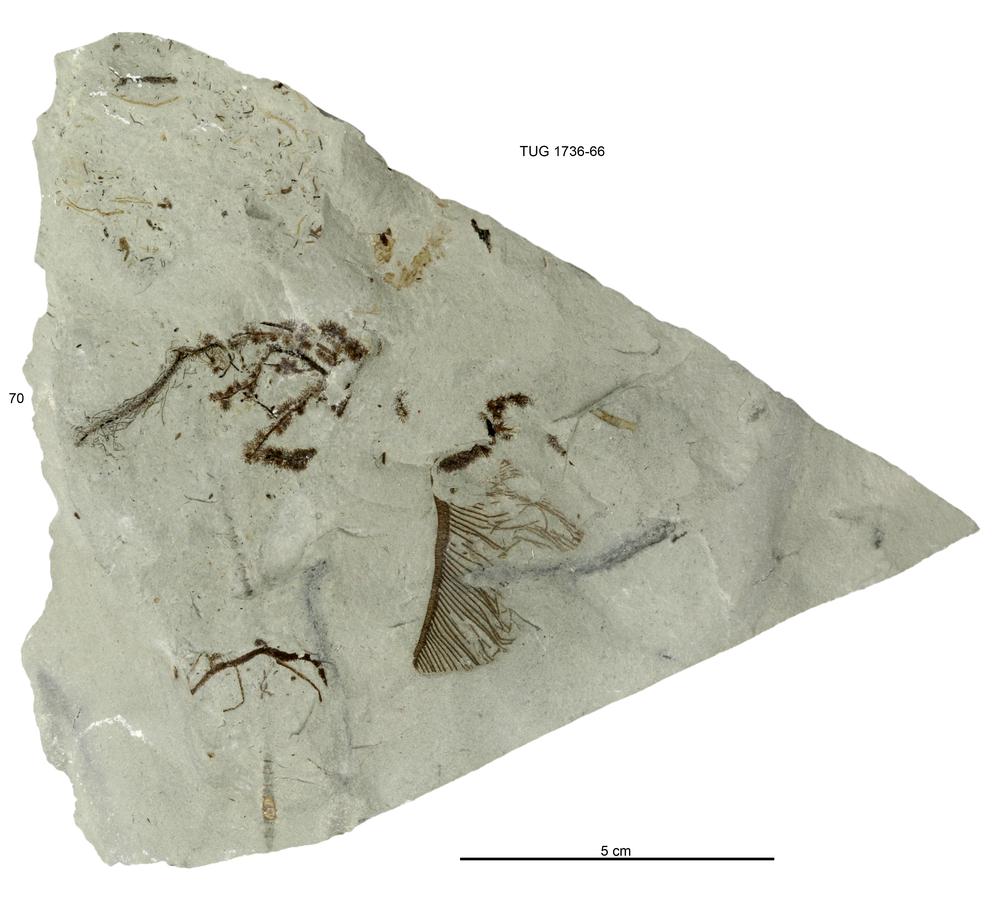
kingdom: Animalia
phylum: Echinodermata
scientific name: Echinodermata
